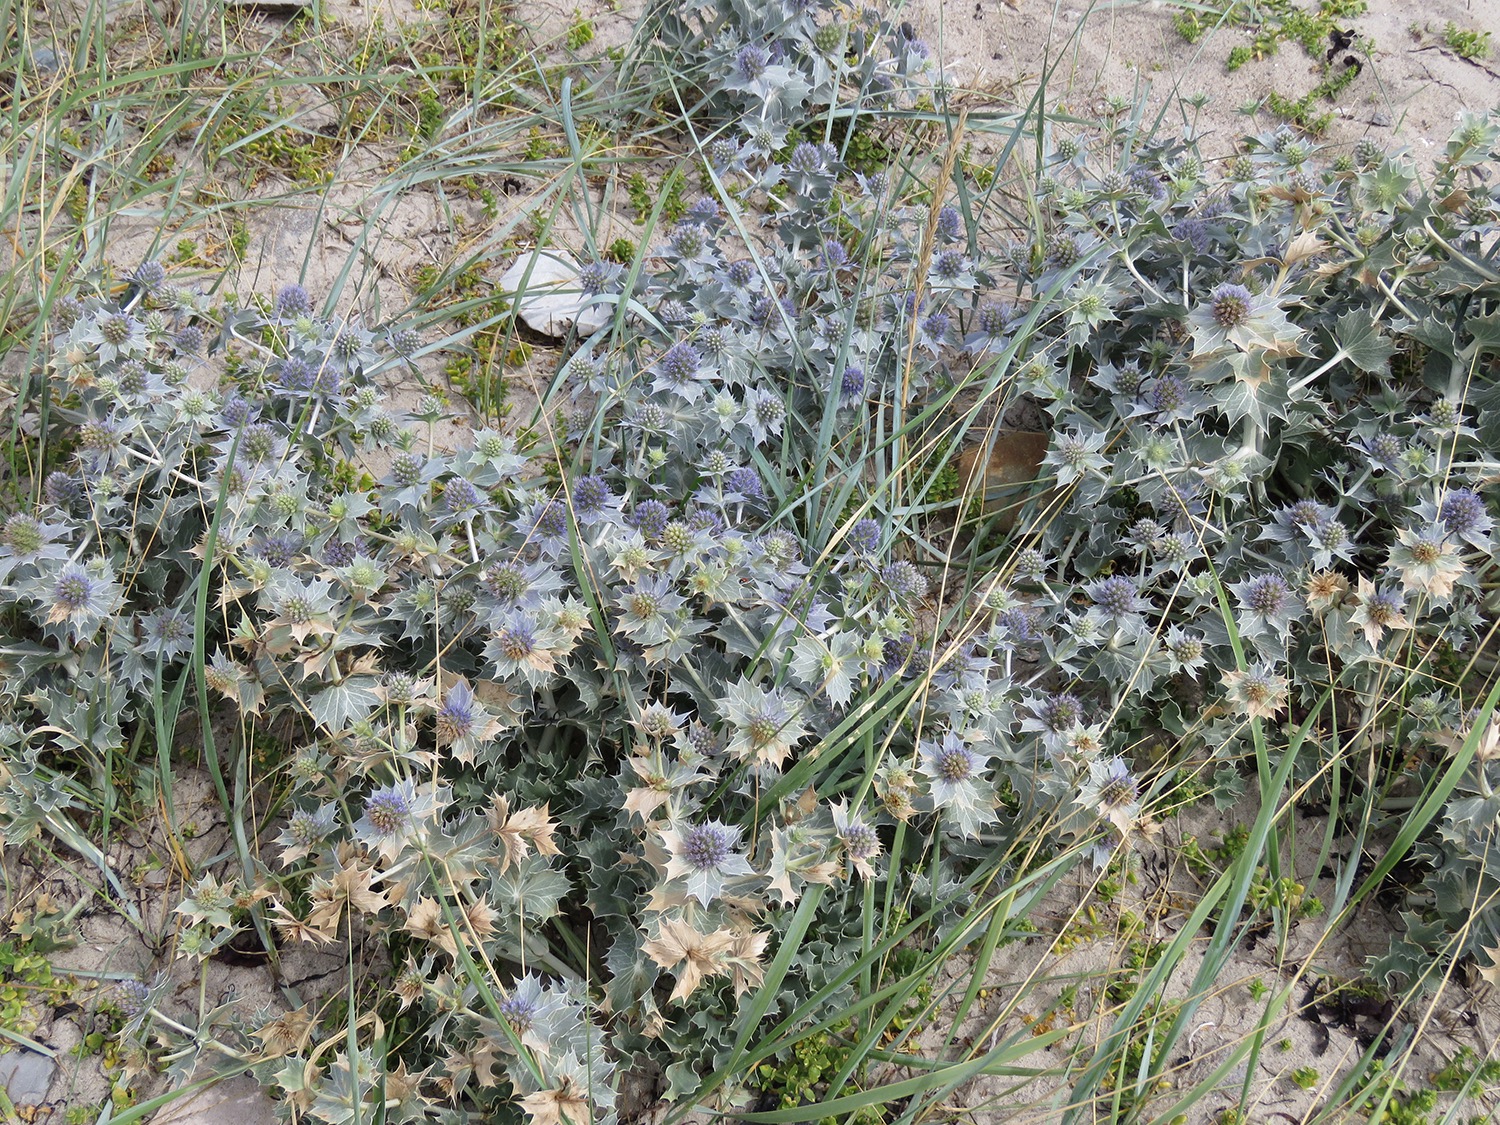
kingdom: Plantae
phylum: Tracheophyta
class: Magnoliopsida
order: Apiales
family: Apiaceae
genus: Eryngium
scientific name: Eryngium maritimum
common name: Strand-mandstro
